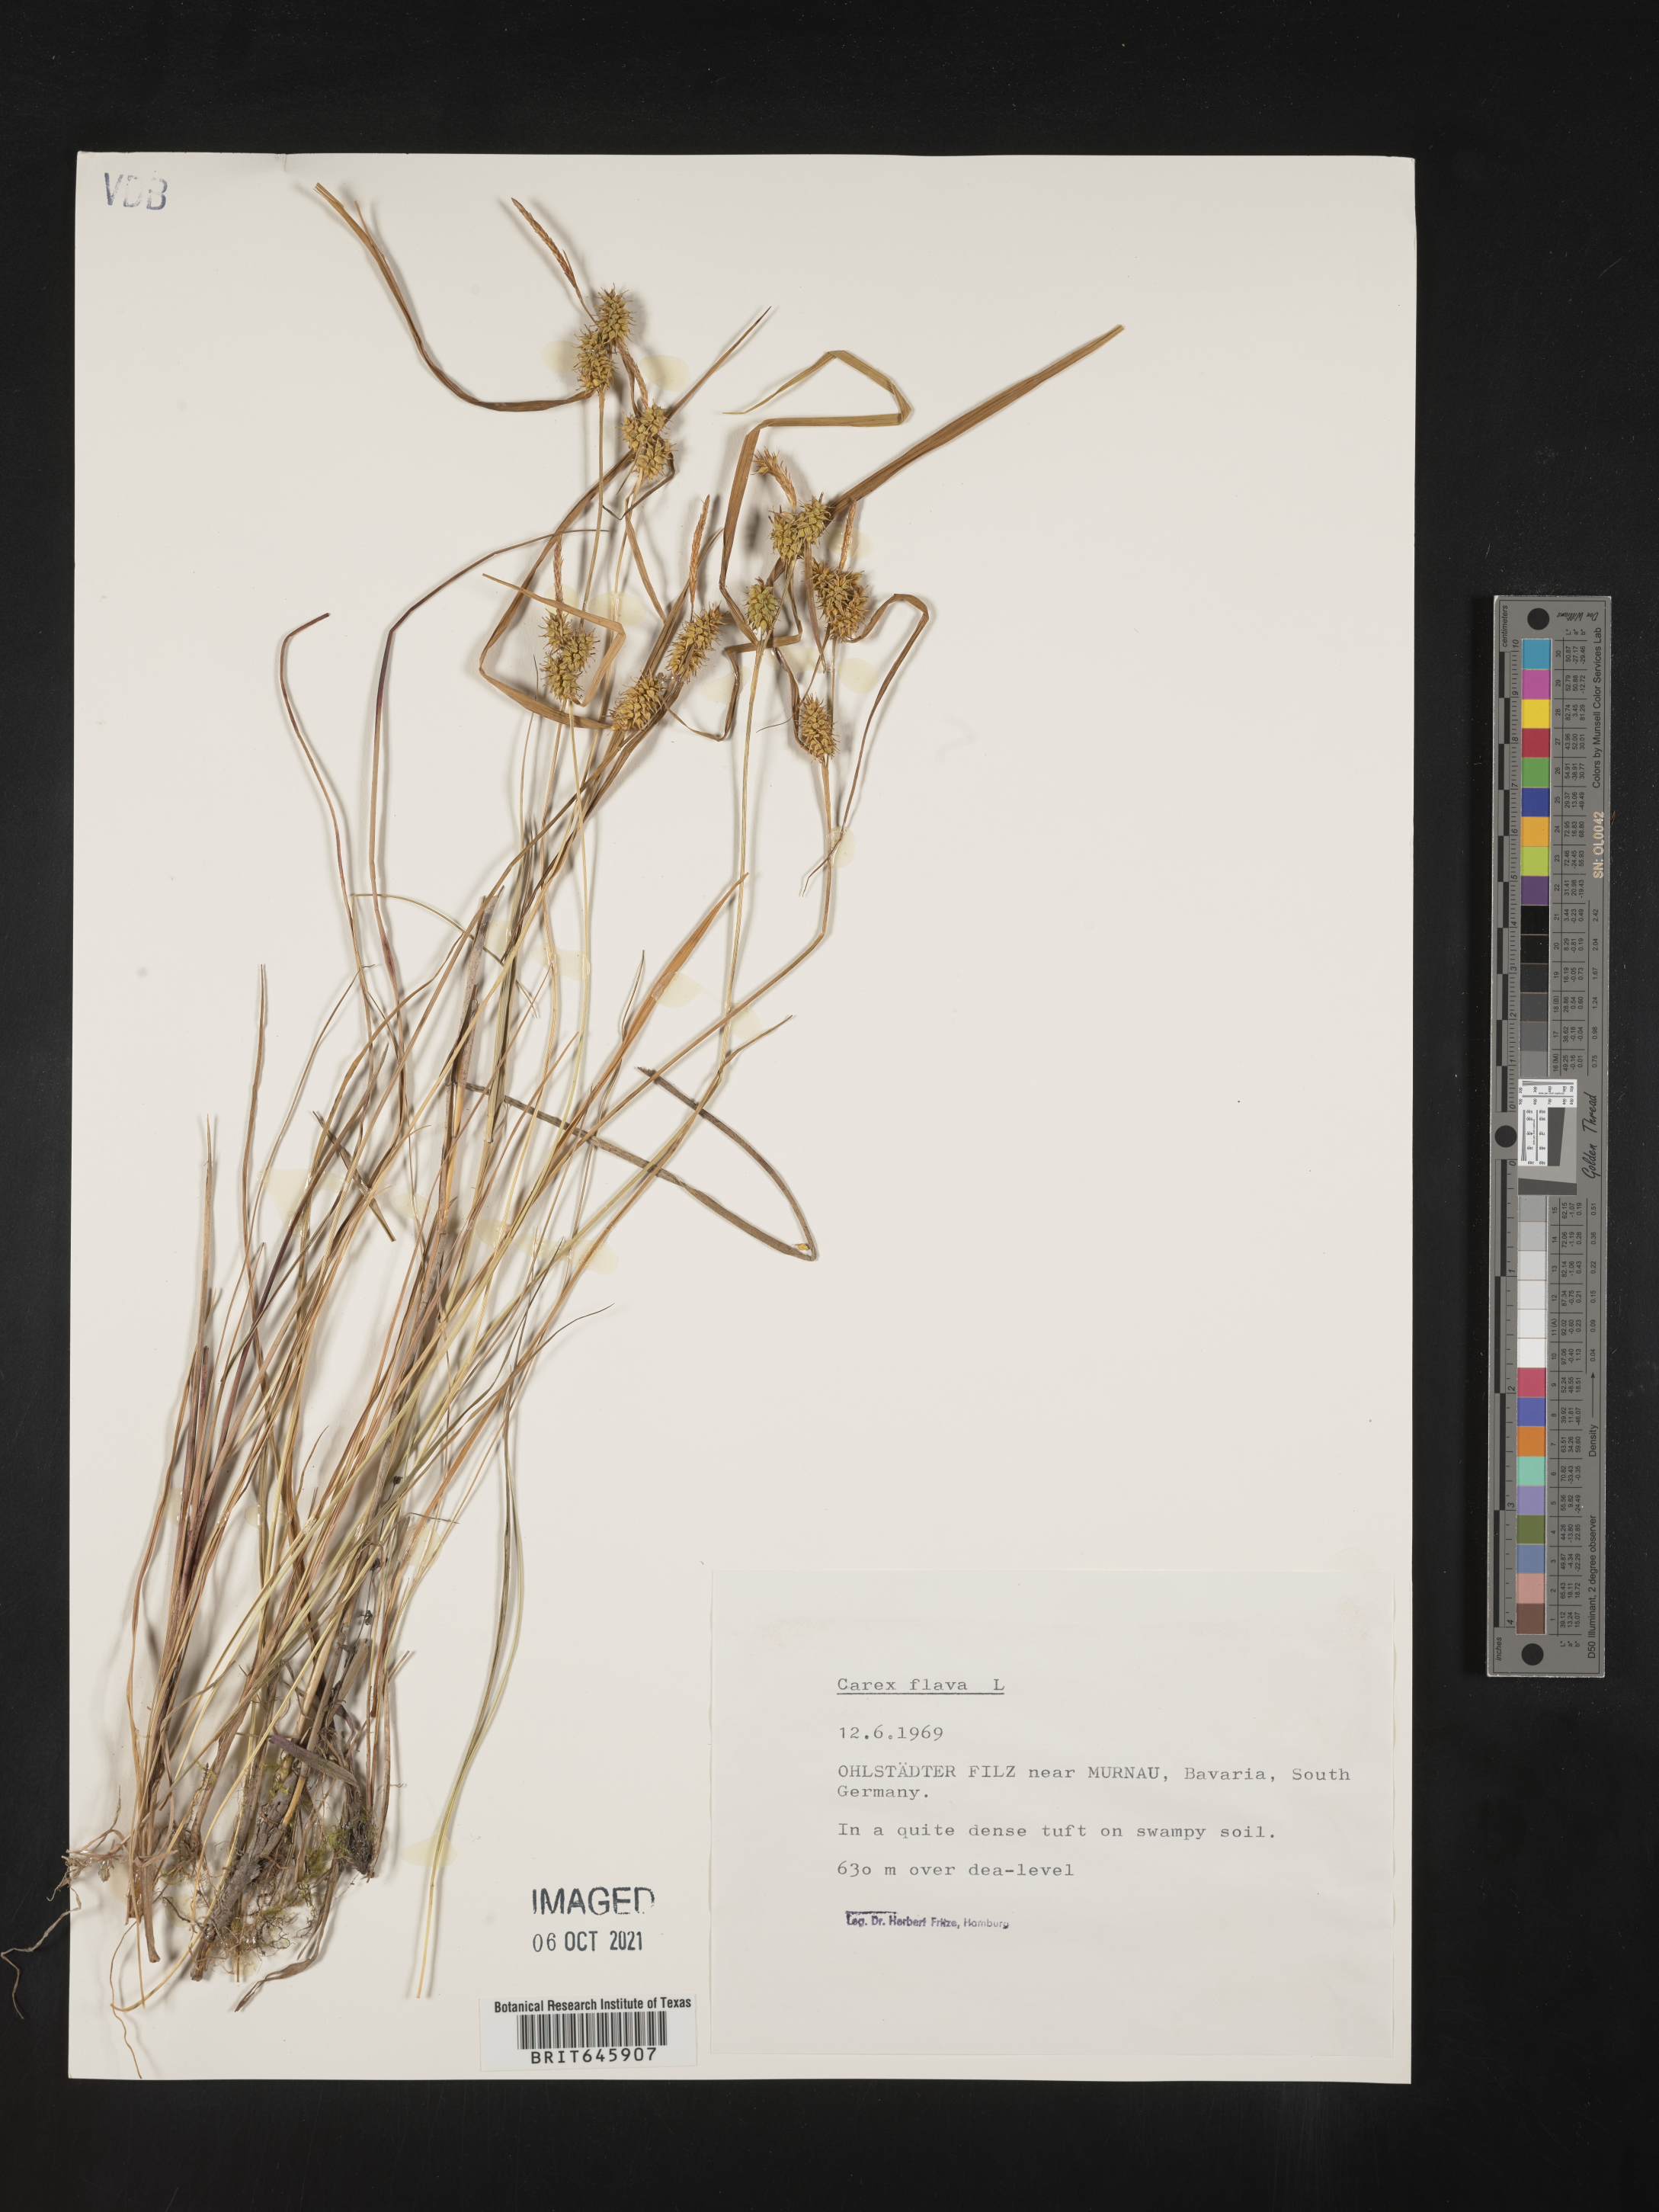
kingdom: Plantae
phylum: Tracheophyta
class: Liliopsida
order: Poales
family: Cyperaceae
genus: Carex
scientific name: Carex flava
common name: Large yellow-sedge
